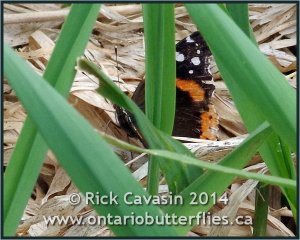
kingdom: Animalia
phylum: Arthropoda
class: Insecta
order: Lepidoptera
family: Nymphalidae
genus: Vanessa
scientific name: Vanessa atalanta
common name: Red Admiral
